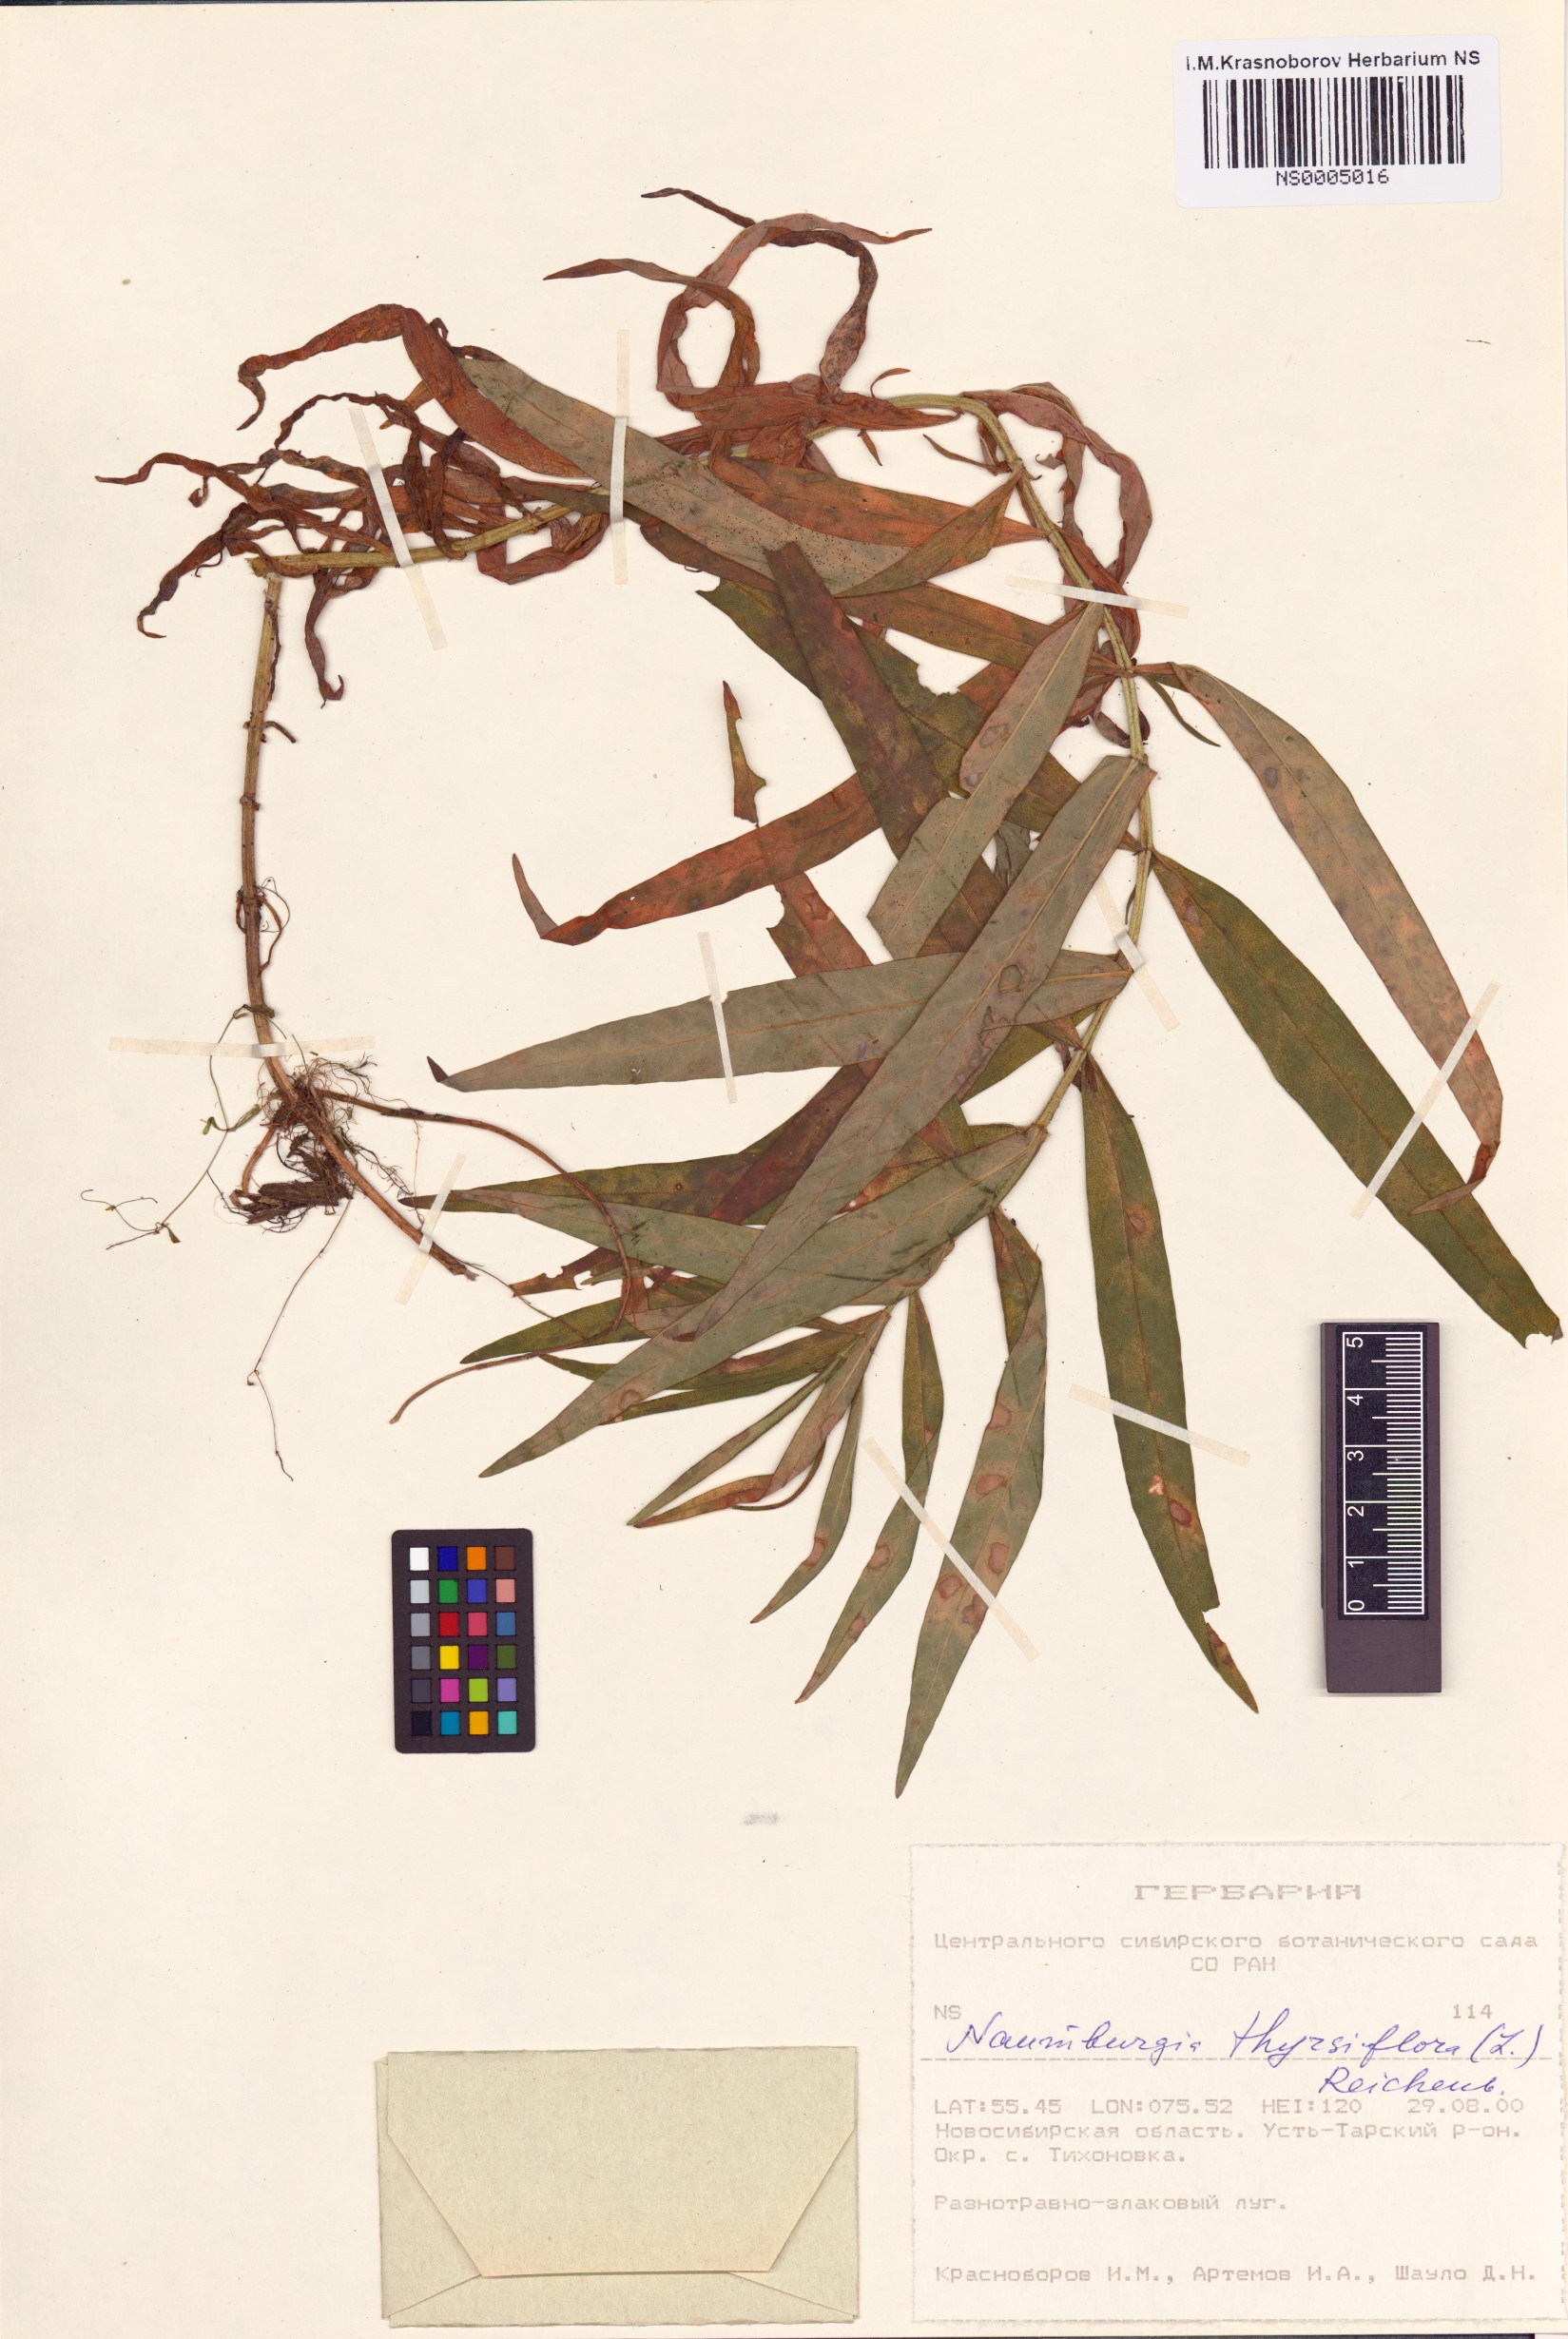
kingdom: Plantae
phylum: Tracheophyta
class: Magnoliopsida
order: Ericales
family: Primulaceae
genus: Lysimachia
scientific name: Lysimachia thyrsiflora
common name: Tufted loosestrife
